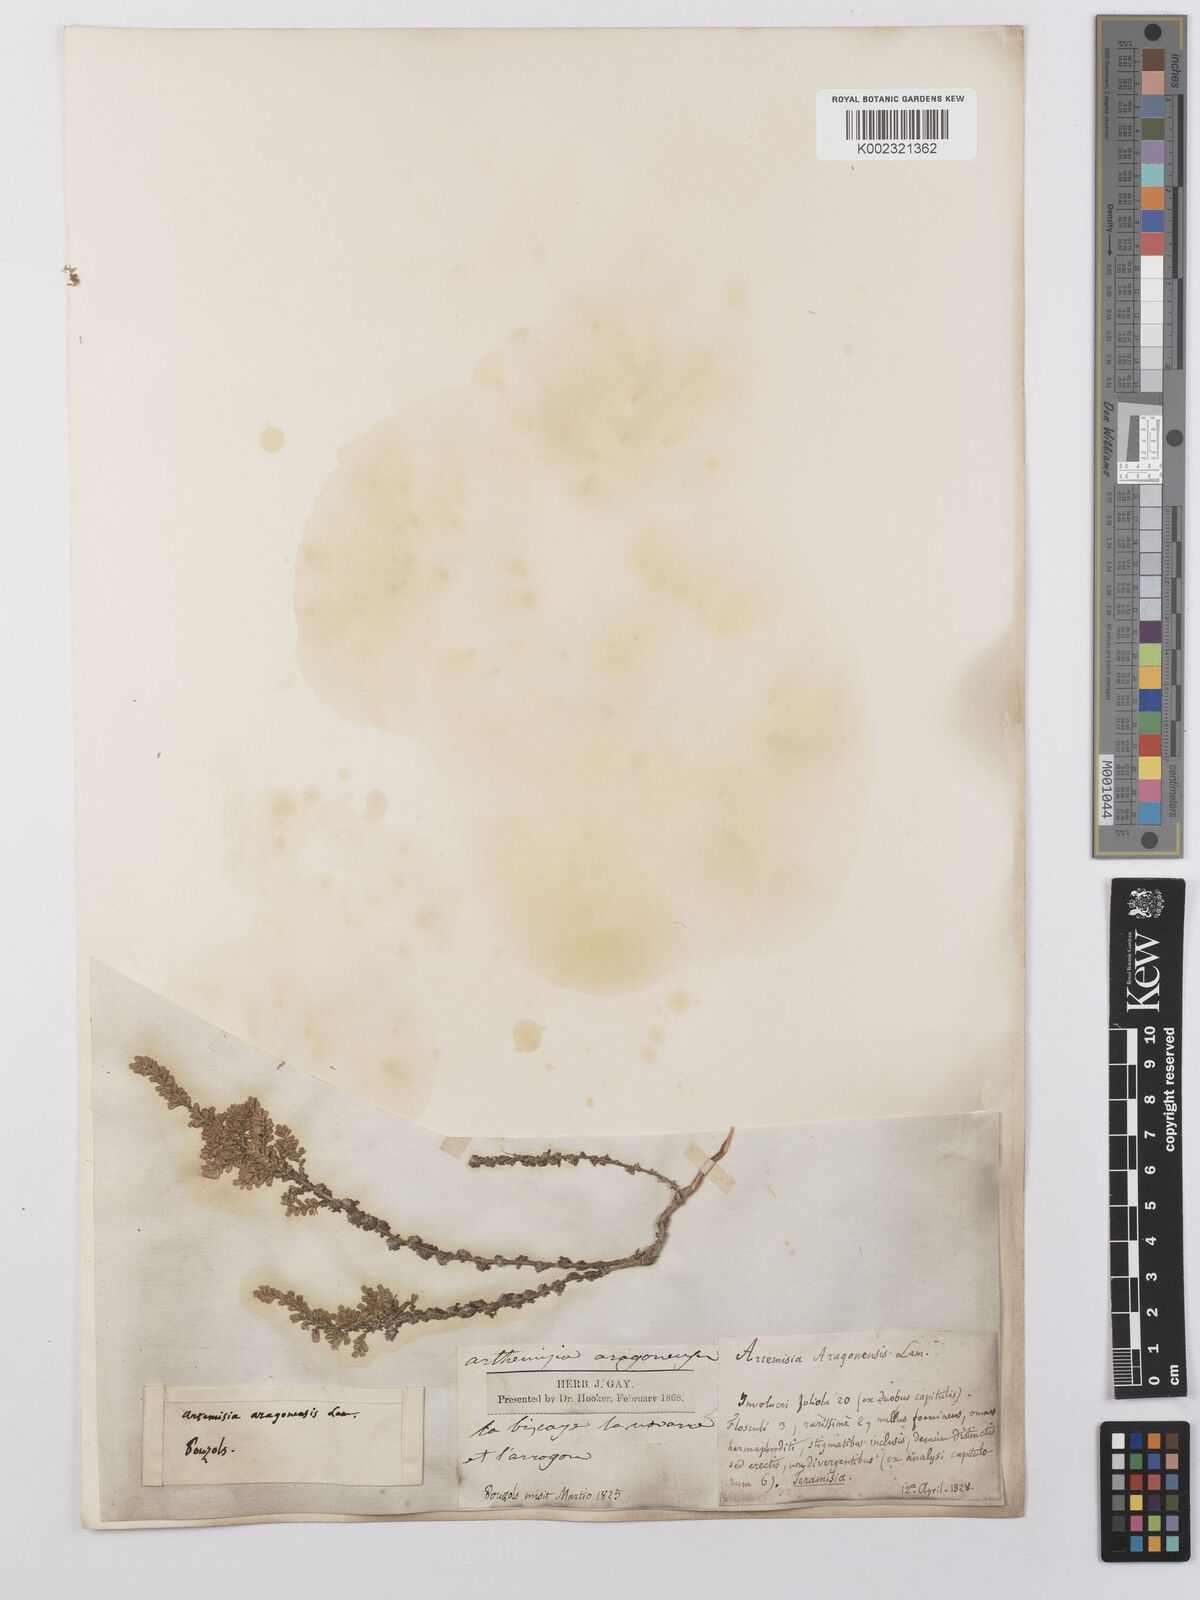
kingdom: Plantae
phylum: Tracheophyta
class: Magnoliopsida
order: Asterales
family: Asteraceae
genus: Artemisia
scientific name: Artemisia herba-alba
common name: White wormwood
